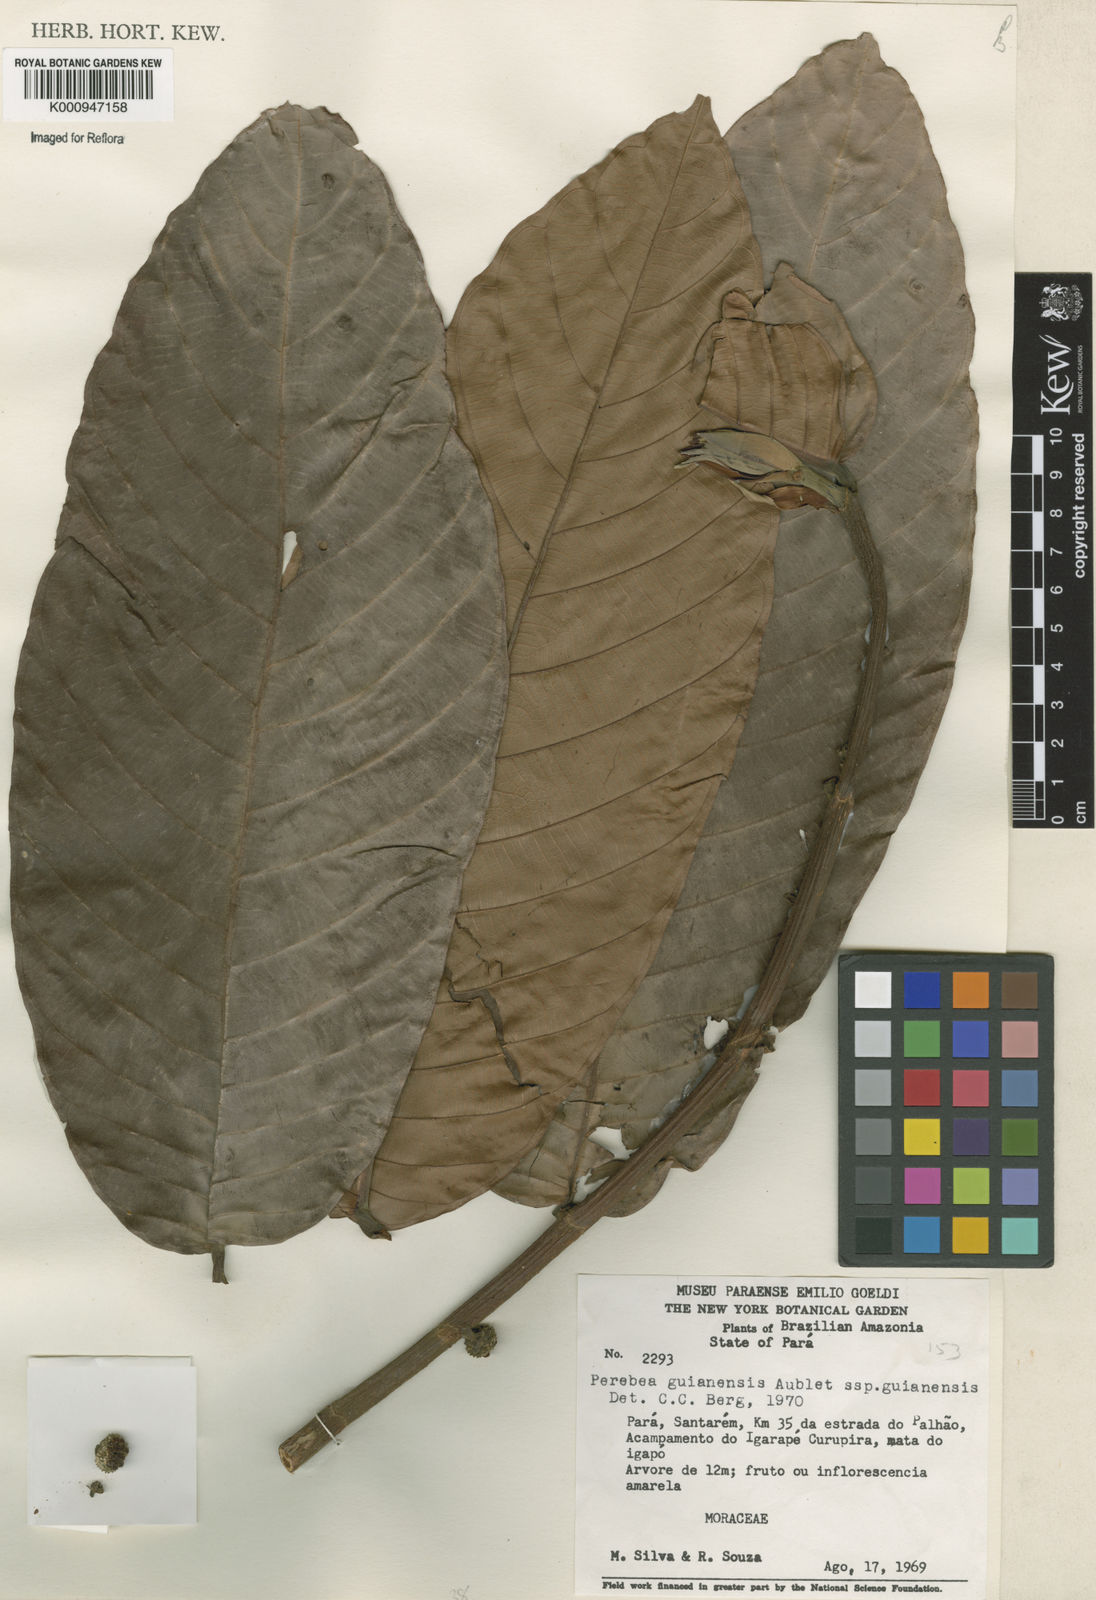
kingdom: Plantae
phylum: Tracheophyta
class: Magnoliopsida
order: Rosales
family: Moraceae
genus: Perebea
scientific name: Perebea guianensis
